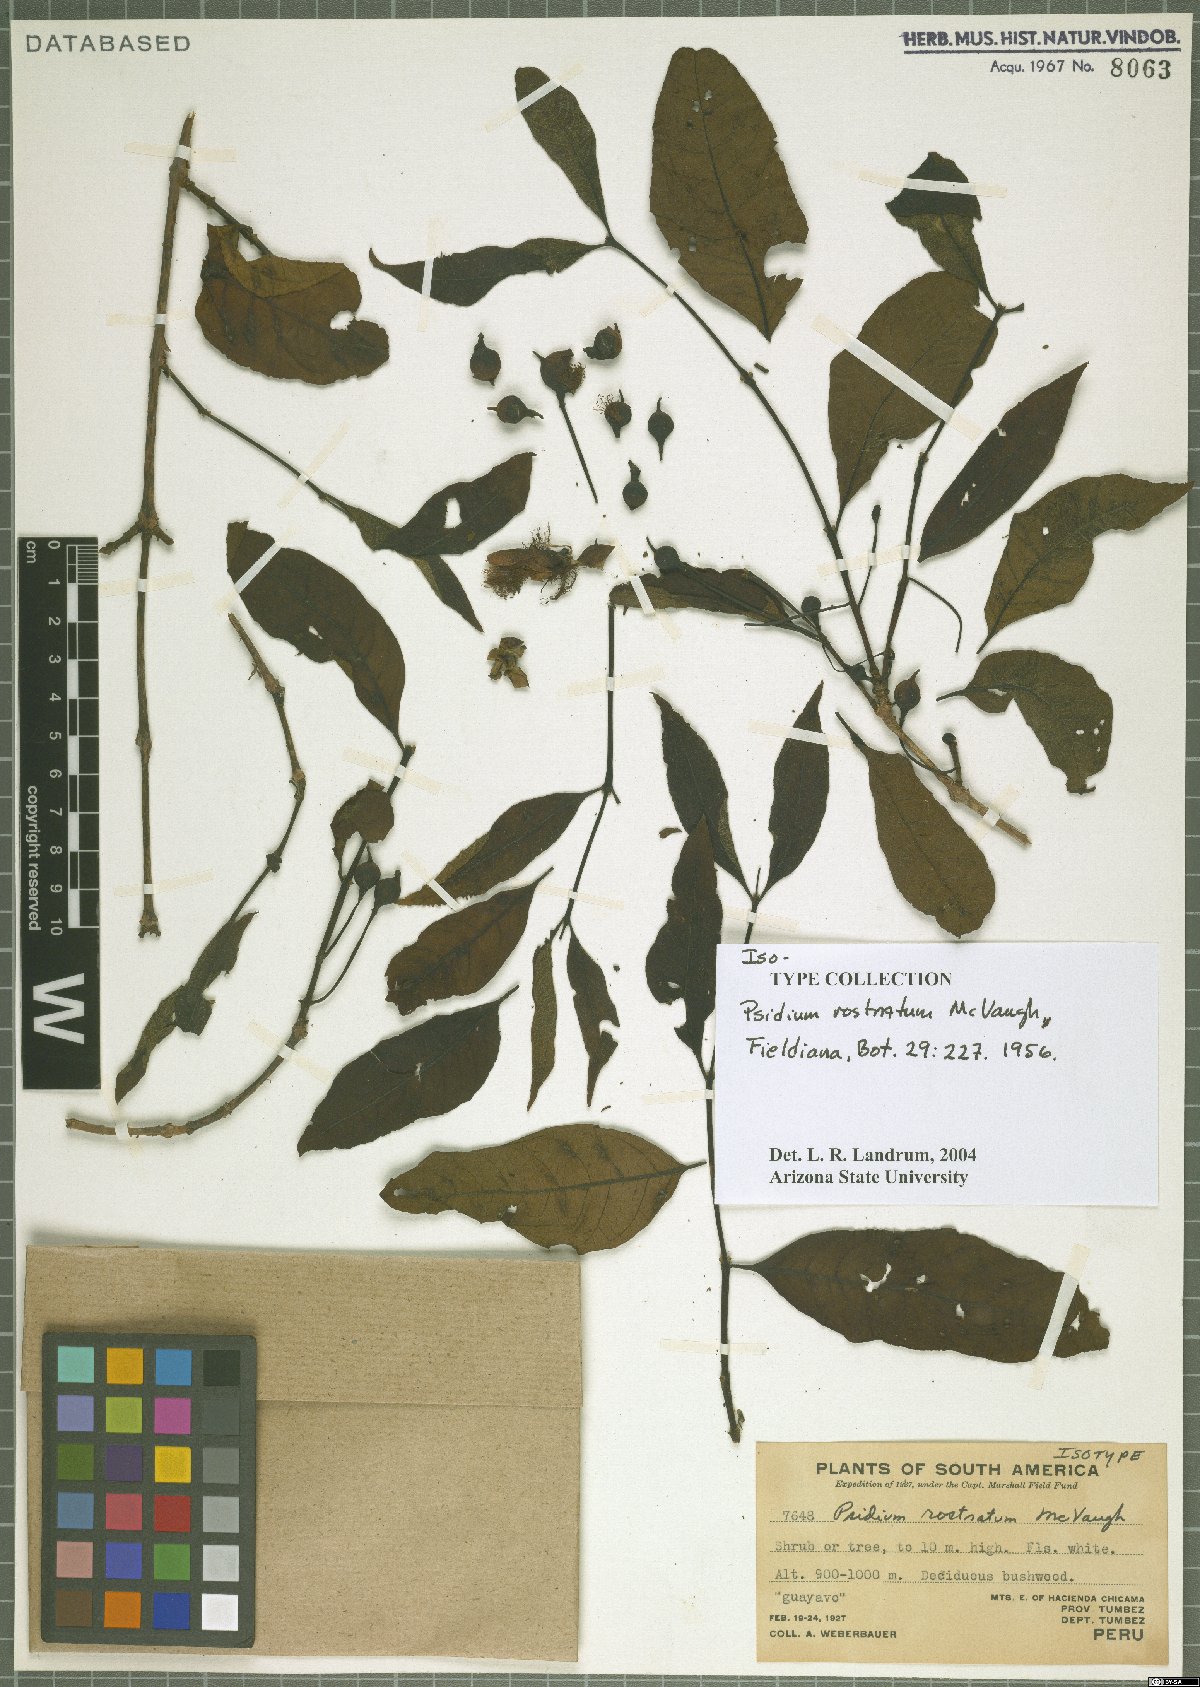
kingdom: Plantae
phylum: Tracheophyta
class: Magnoliopsida
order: Myrtales
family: Myrtaceae
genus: Psidium
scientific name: Psidium rostratum
